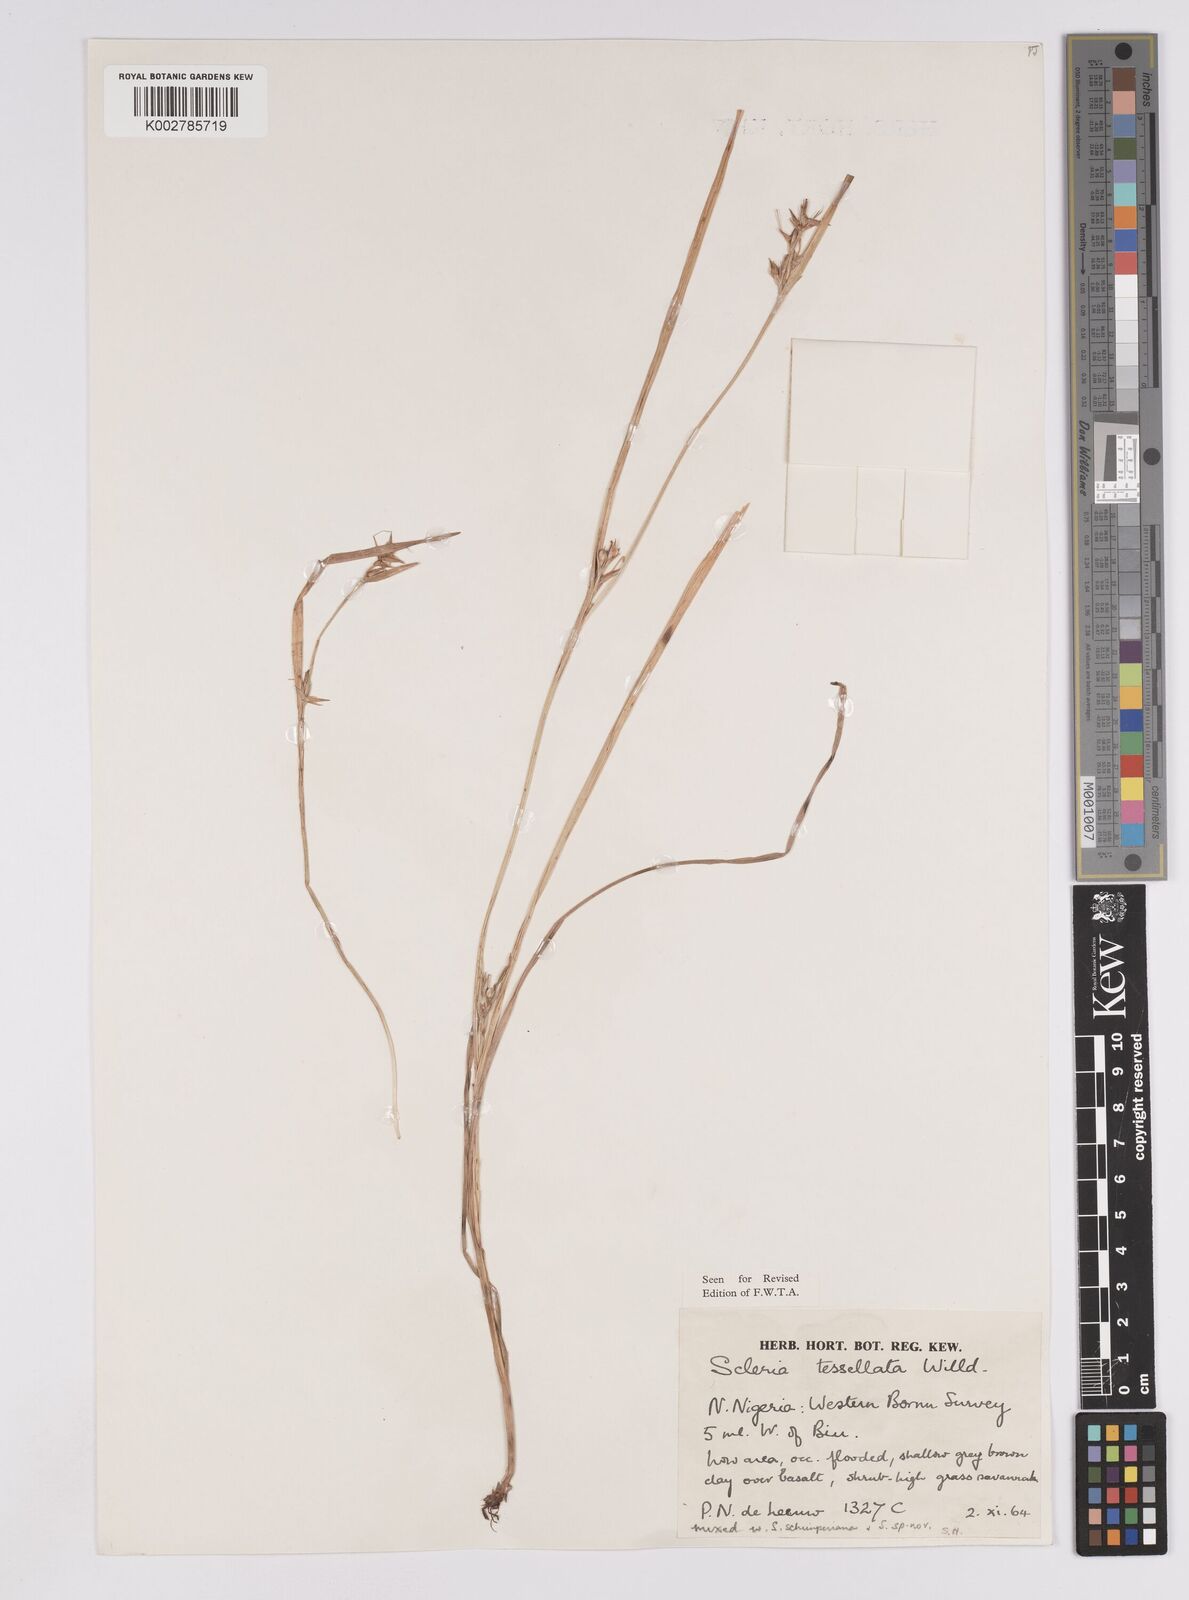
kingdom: Plantae
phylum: Tracheophyta
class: Liliopsida
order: Poales
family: Cyperaceae
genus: Scleria
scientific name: Scleria tessellata
